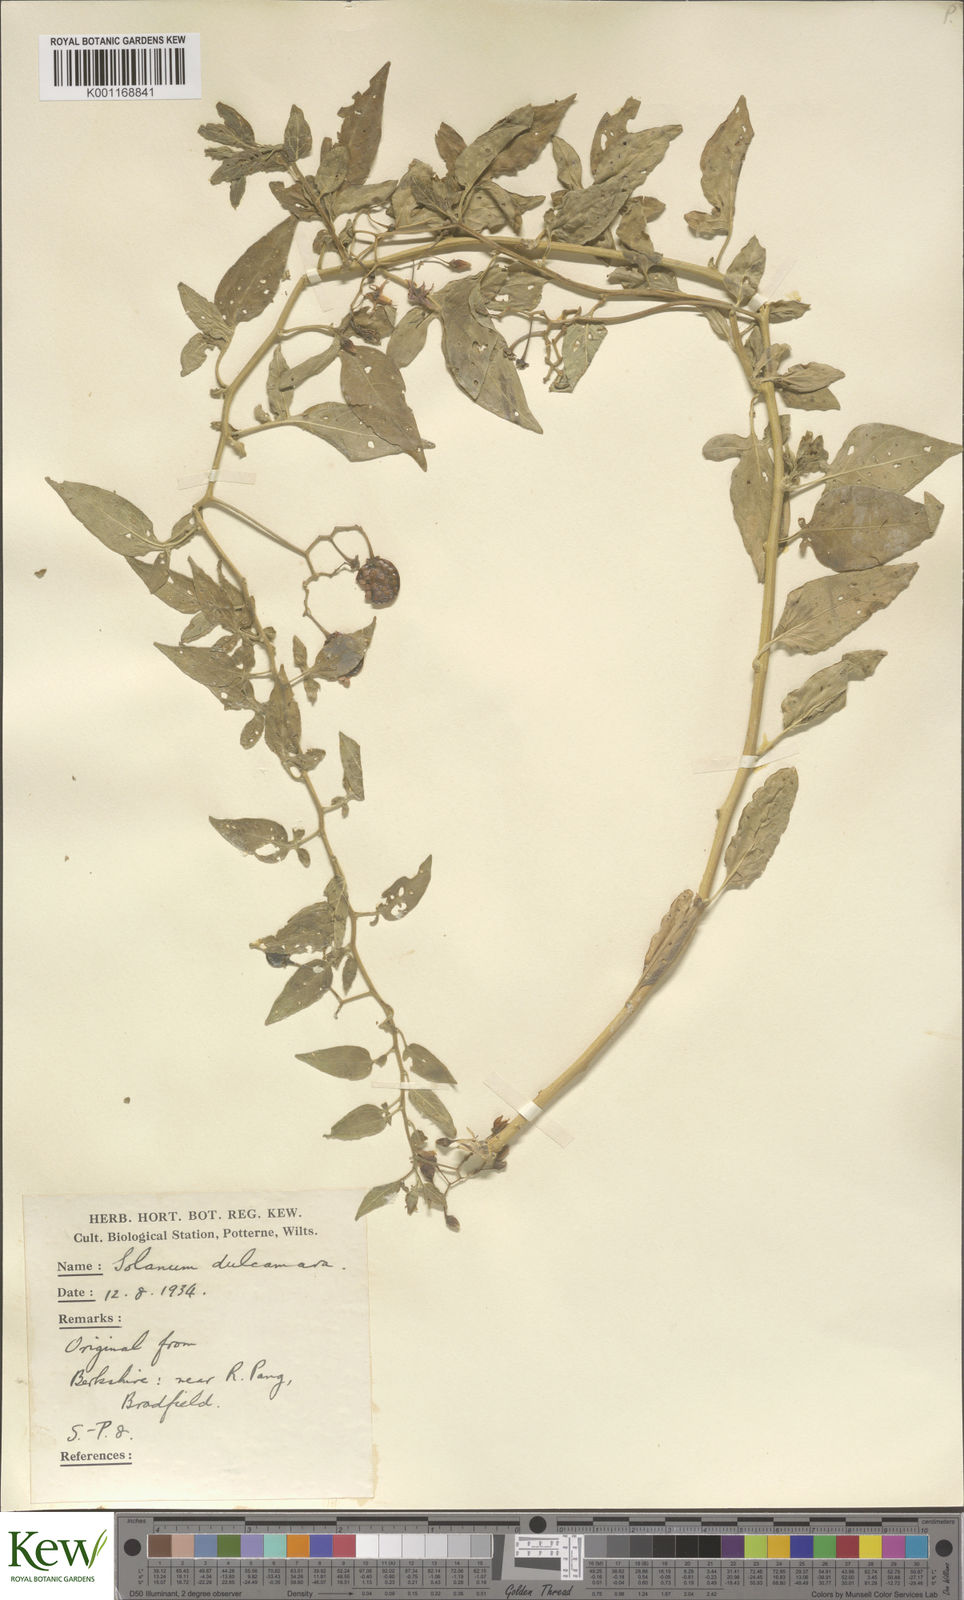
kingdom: Plantae
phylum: Tracheophyta
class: Magnoliopsida
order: Solanales
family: Solanaceae
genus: Solanum
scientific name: Solanum dulcamara
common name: Climbing nightshade
